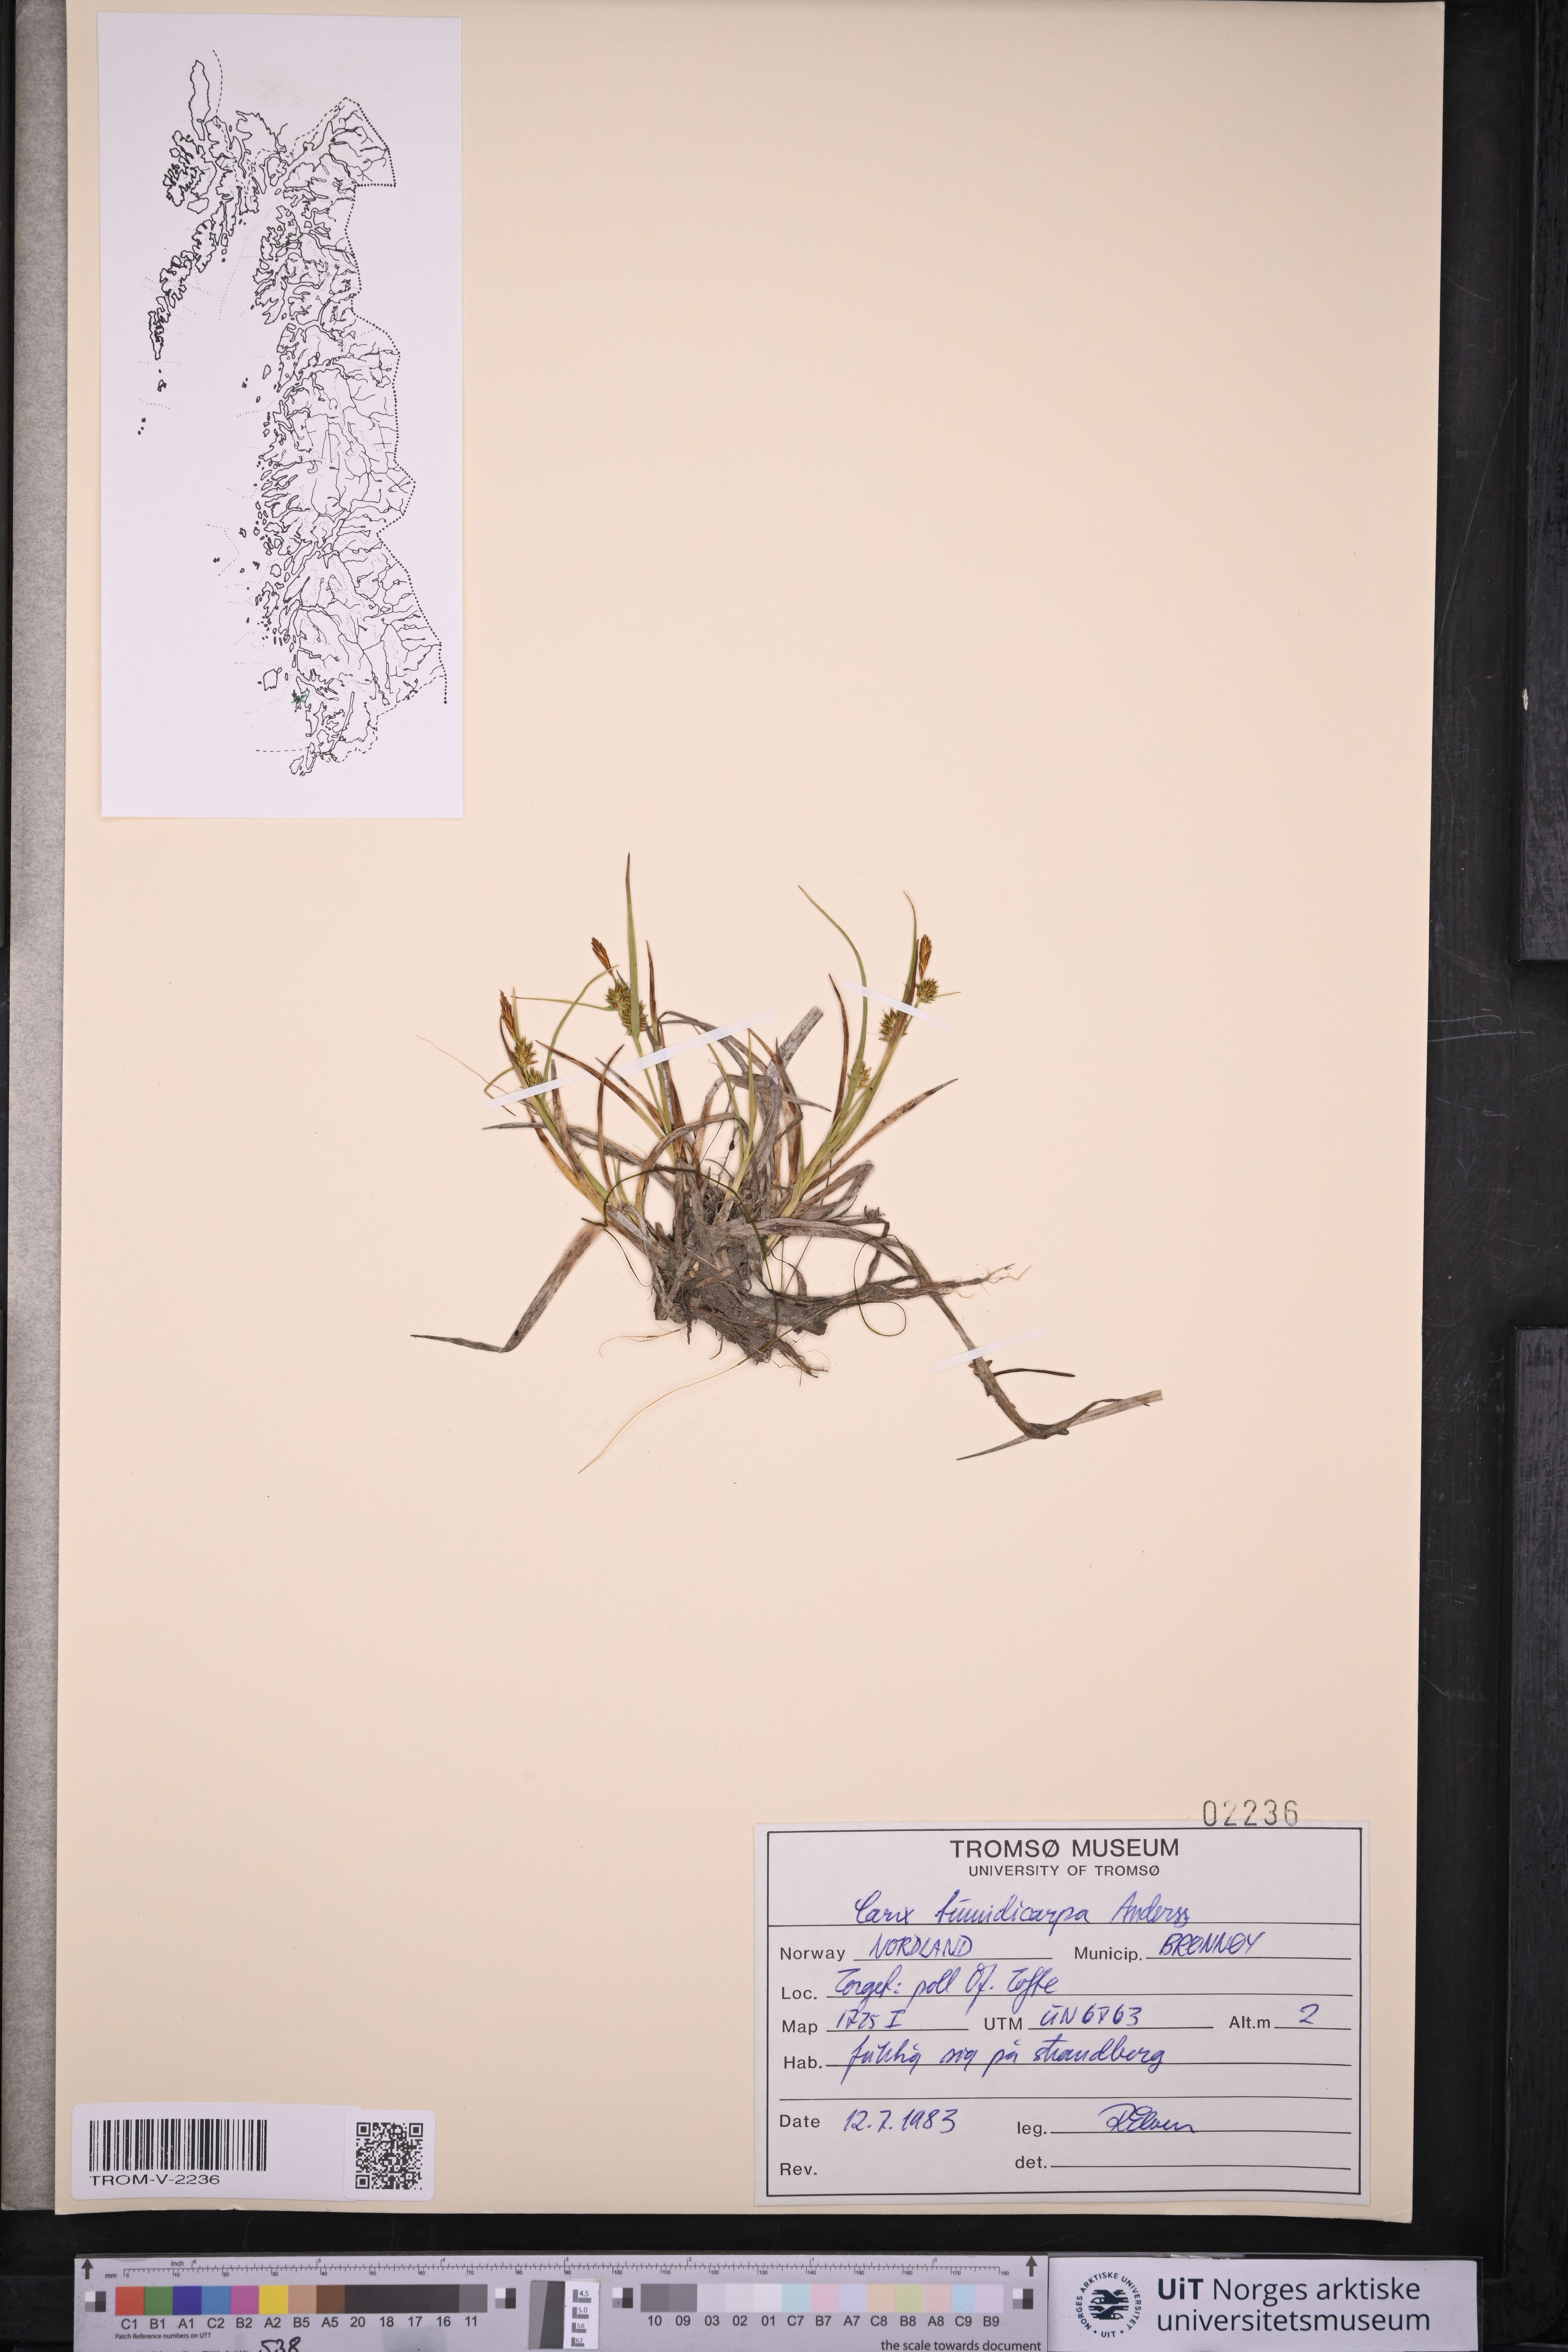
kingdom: Plantae
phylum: Tracheophyta
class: Liliopsida
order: Poales
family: Cyperaceae
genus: Carex
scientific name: Carex demissa
